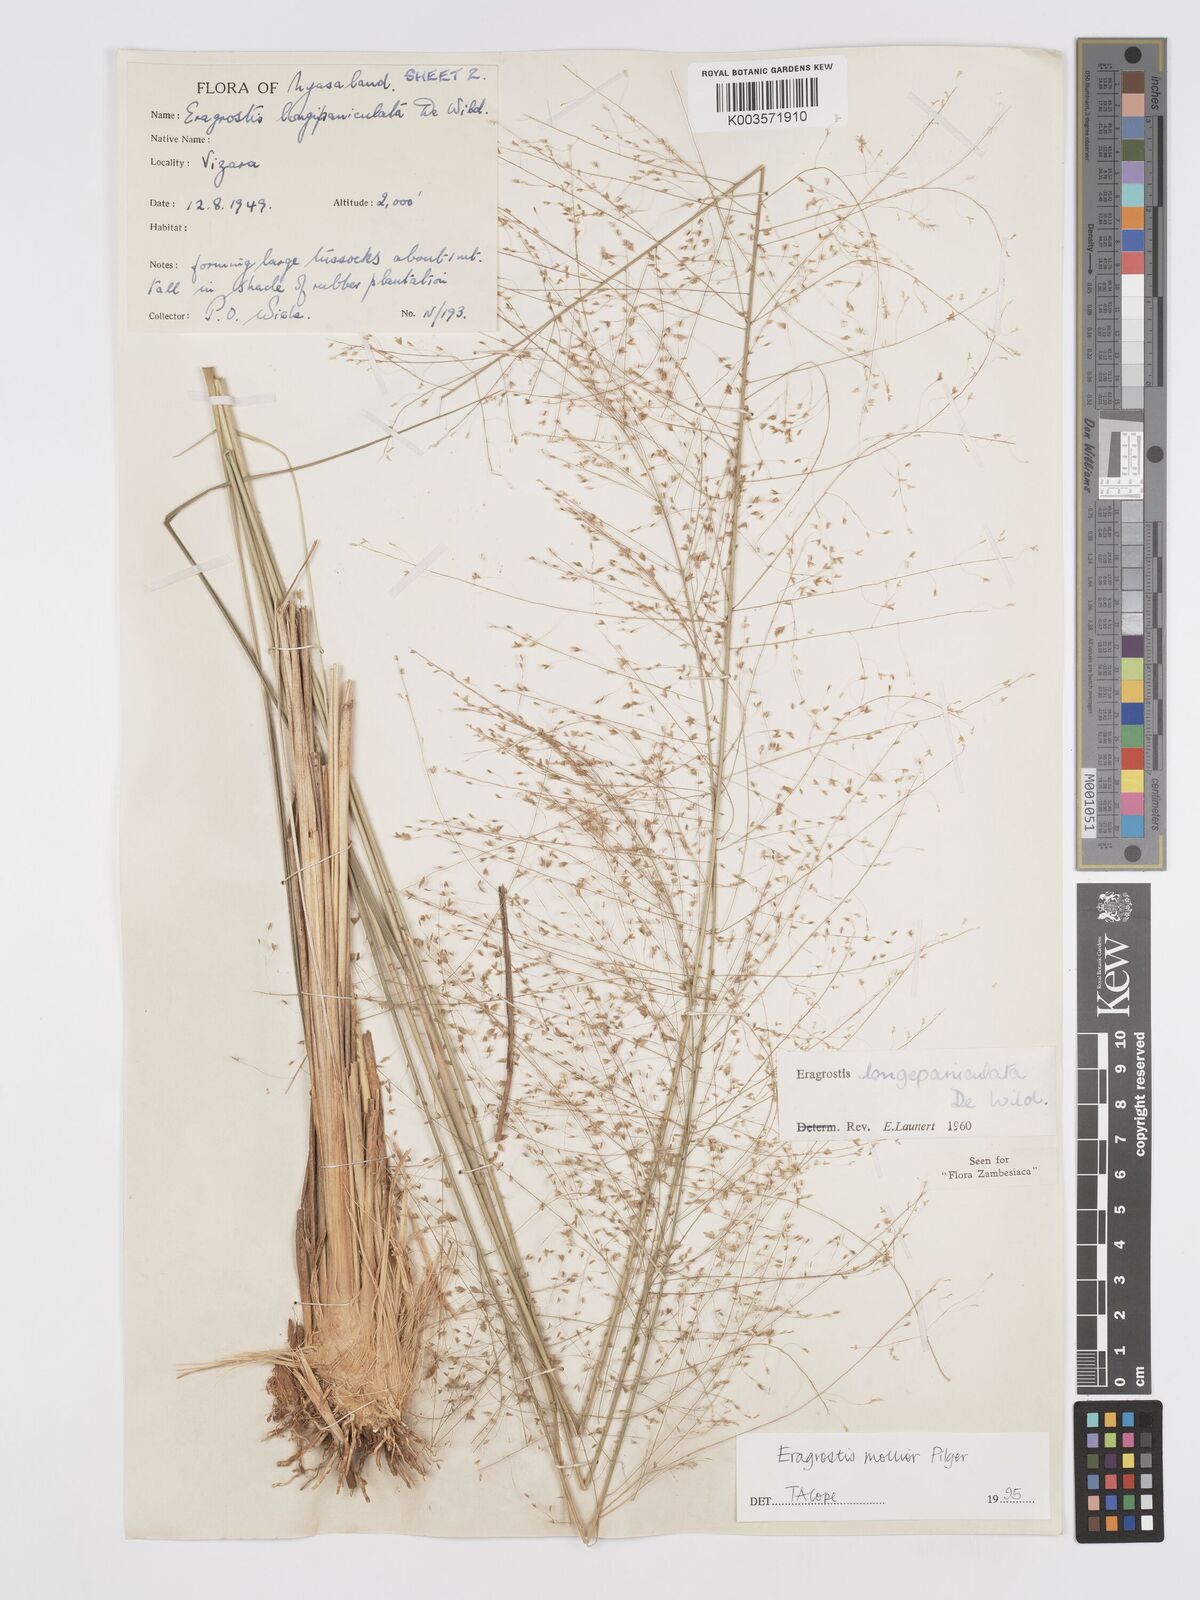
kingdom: Plantae
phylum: Tracheophyta
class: Liliopsida
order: Poales
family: Poaceae
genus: Eragrostis
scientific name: Eragrostis mollior
